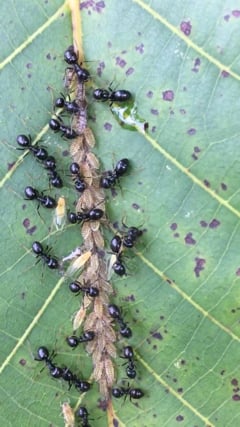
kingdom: Animalia
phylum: Arthropoda
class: Insecta
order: Hymenoptera
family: Formicidae
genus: Lasius
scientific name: Lasius fuliginosus
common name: Jet ant
